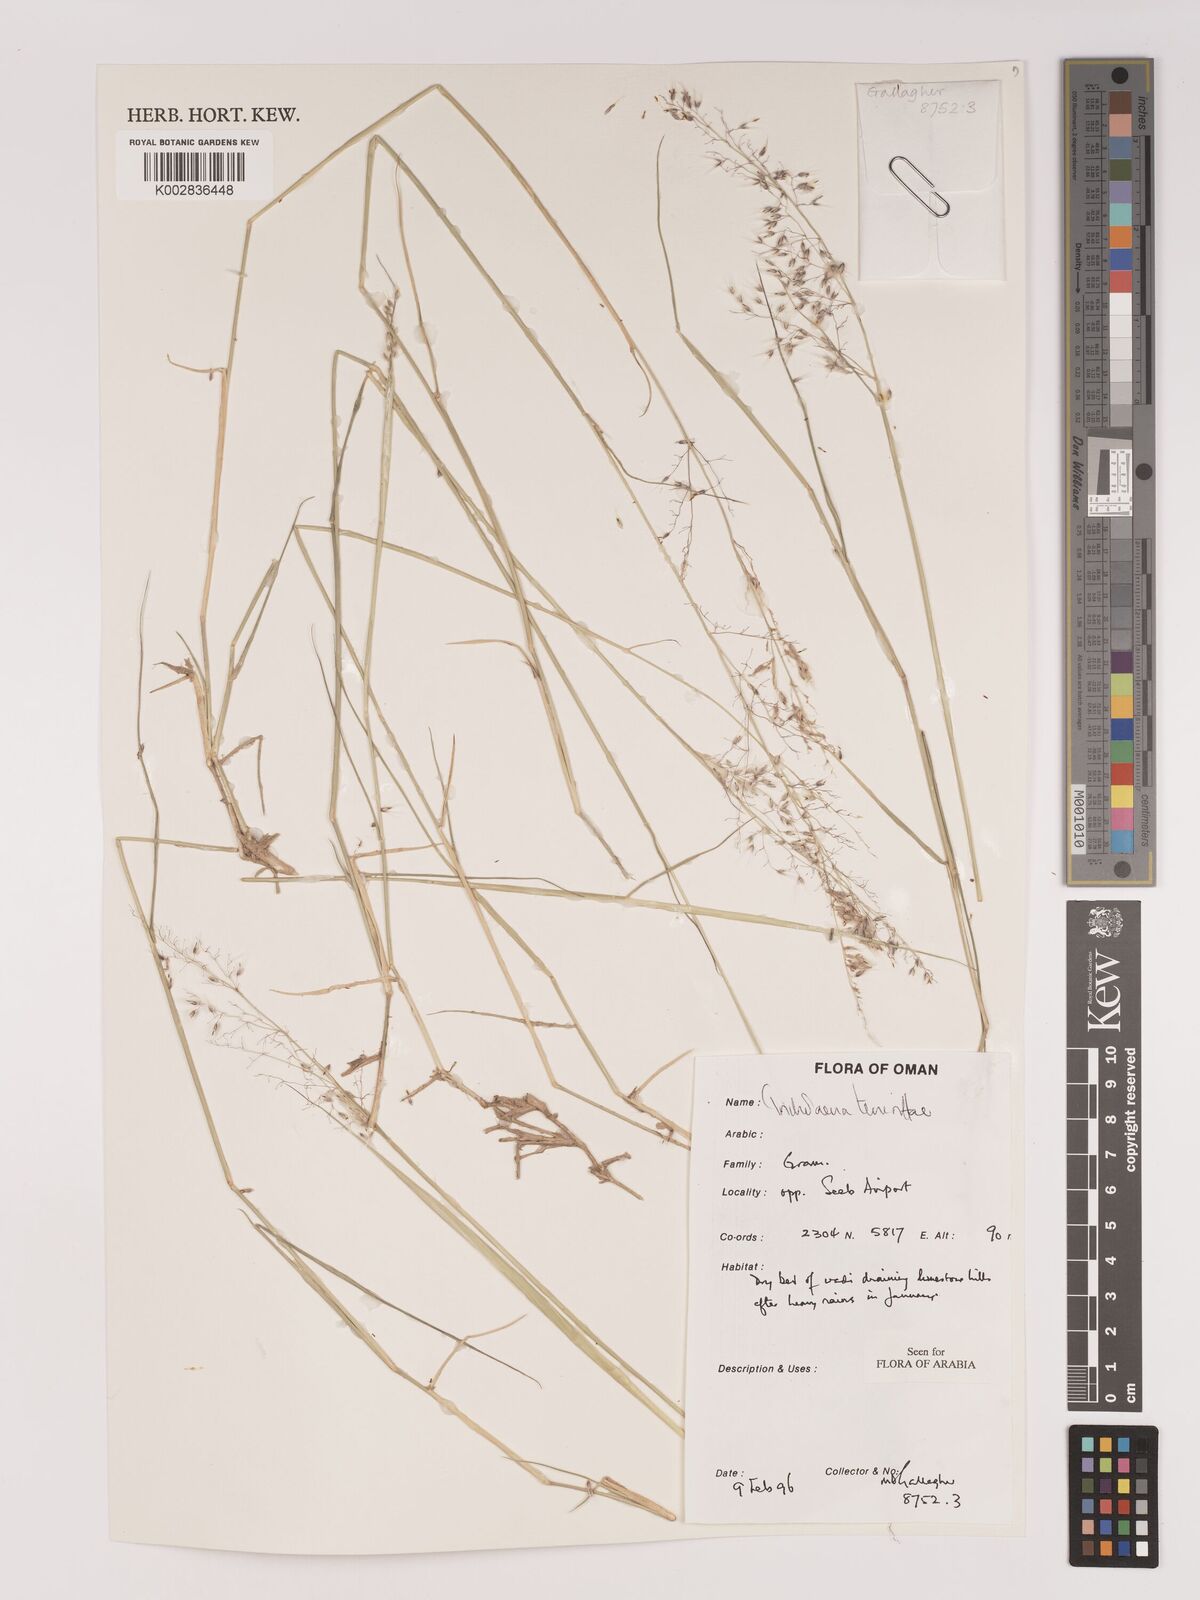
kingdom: Plantae
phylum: Tracheophyta
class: Liliopsida
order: Poales
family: Poaceae
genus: Tricholaena
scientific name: Tricholaena teneriffae
